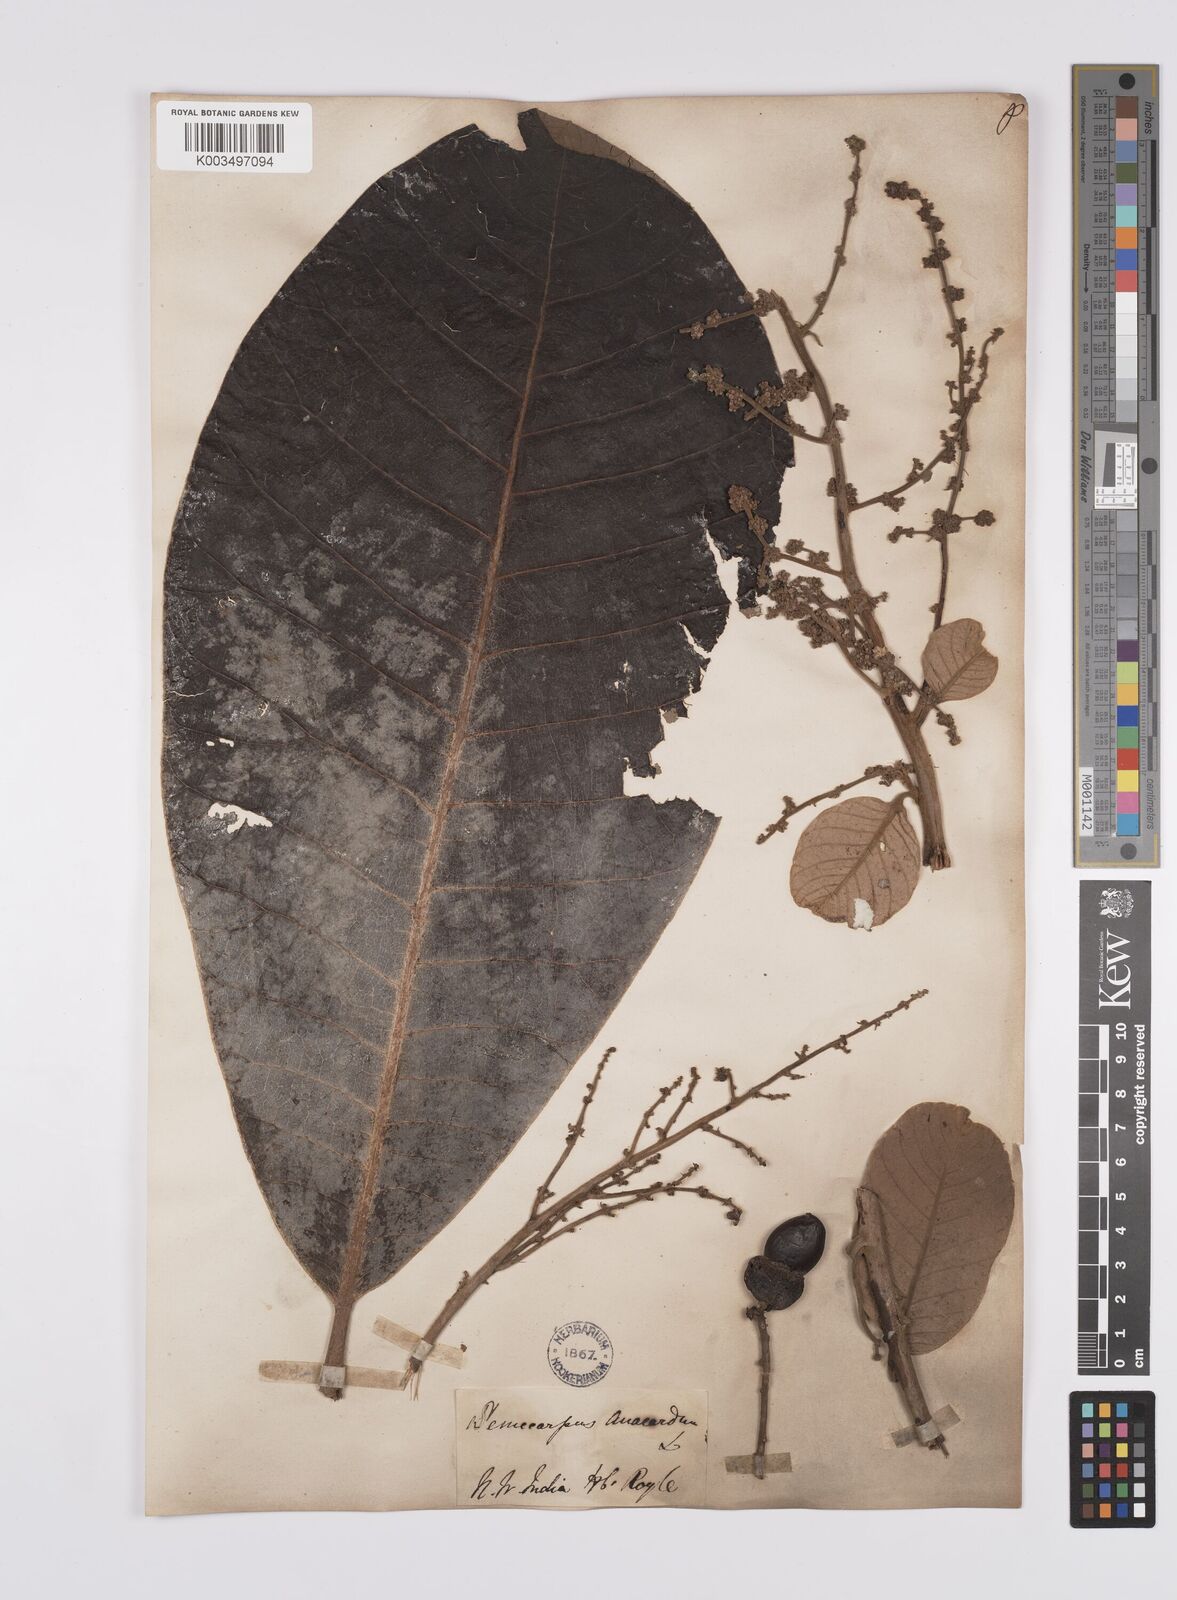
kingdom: Plantae
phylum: Tracheophyta
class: Magnoliopsida
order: Sapindales
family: Anacardiaceae
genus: Semecarpus
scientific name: Semecarpus anacardium
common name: Marking nut-tree
